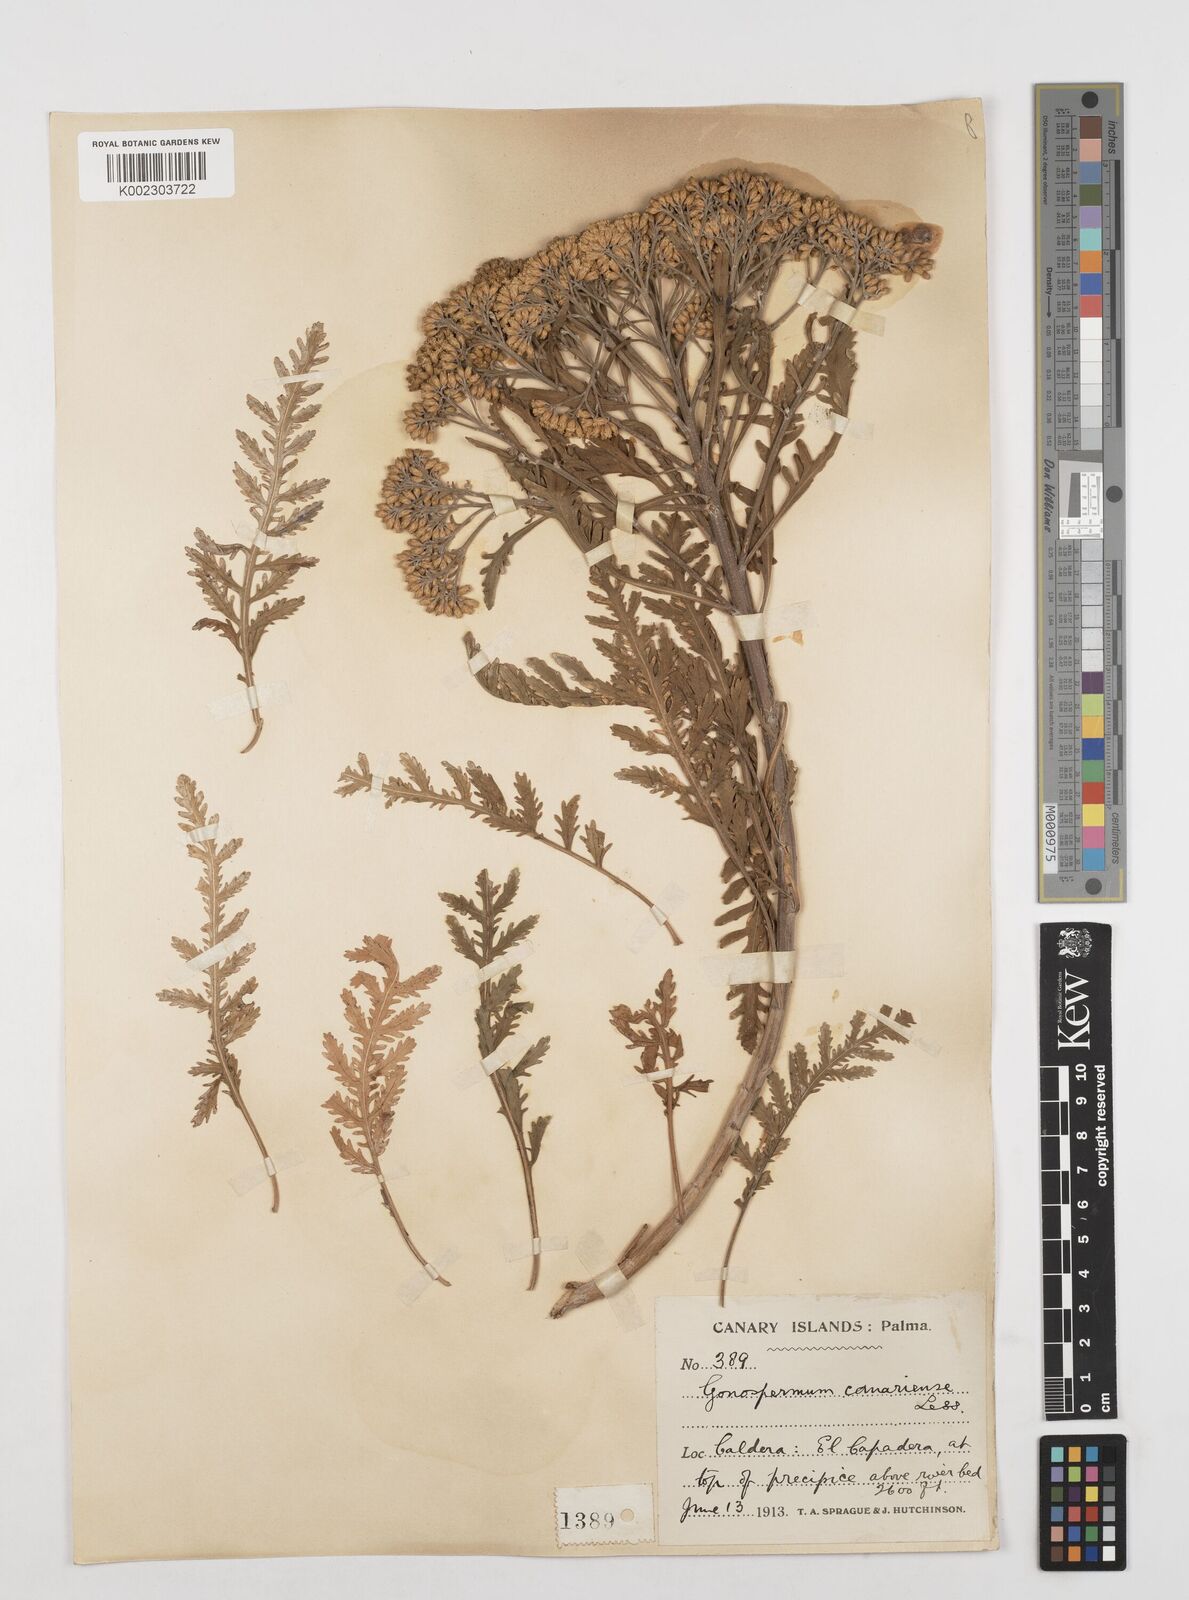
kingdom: Plantae
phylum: Tracheophyta
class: Magnoliopsida
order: Asterales
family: Asteraceae
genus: Gonospermum
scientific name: Gonospermum canariense
